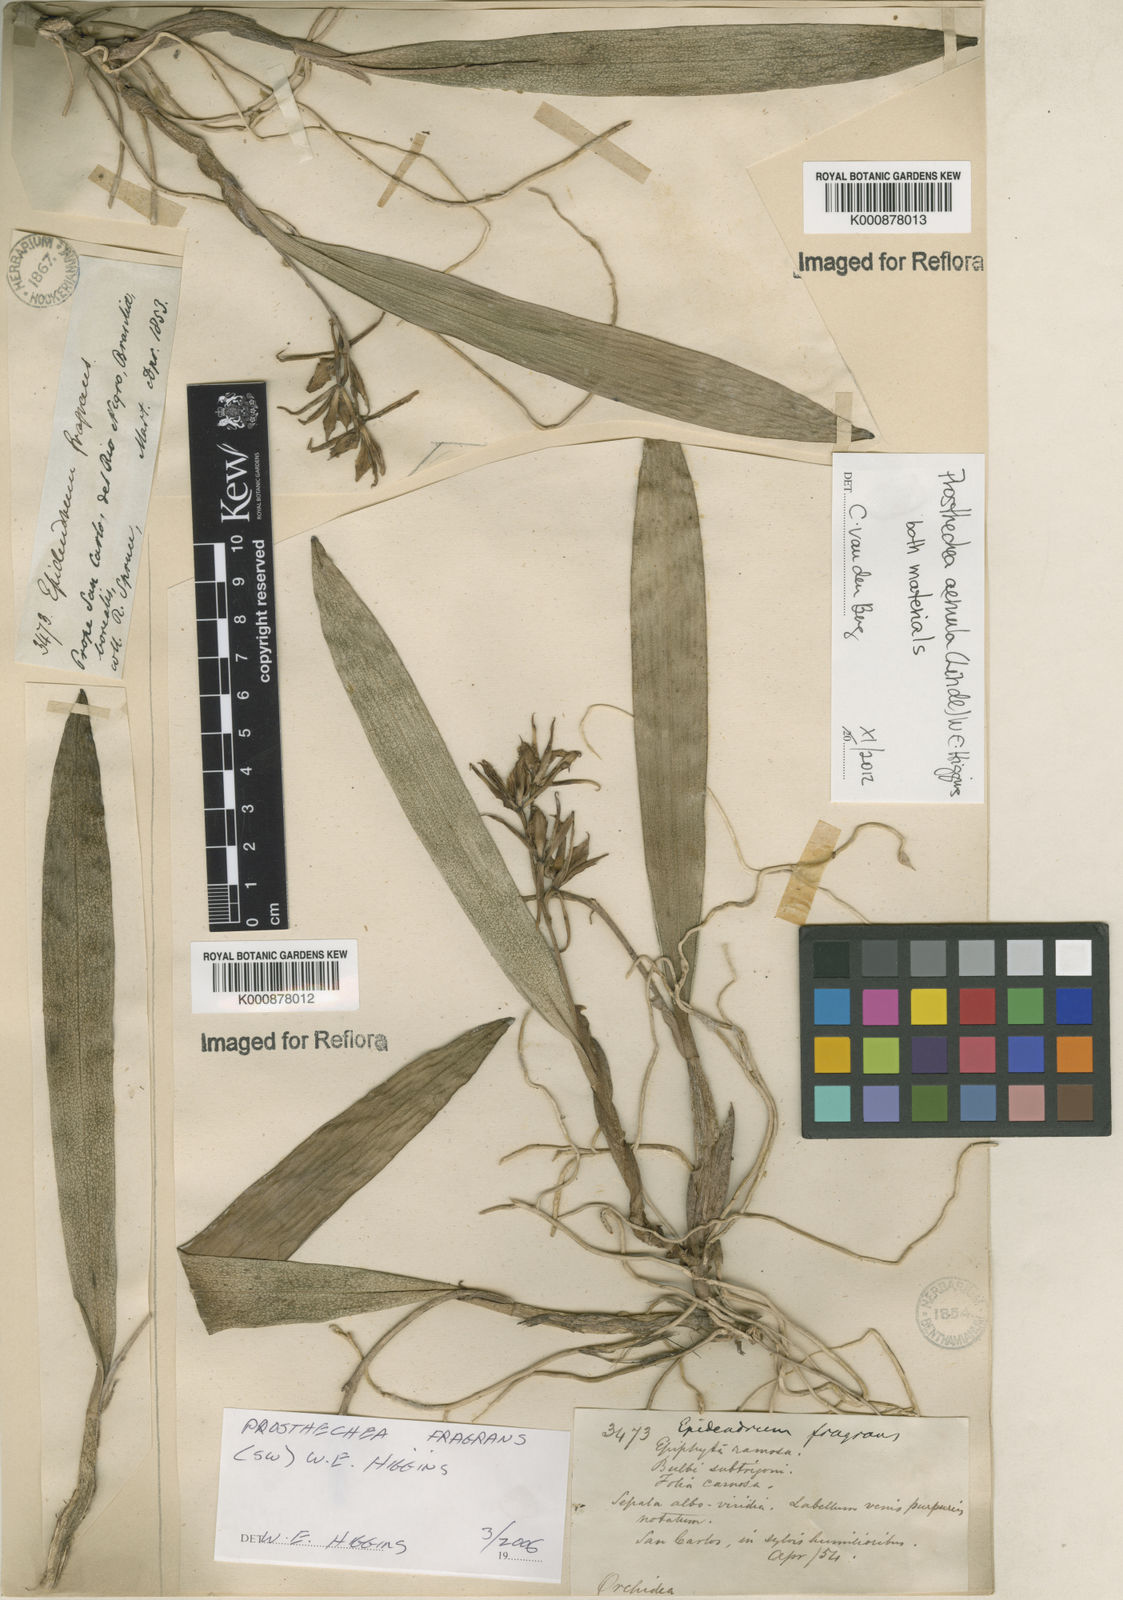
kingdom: Plantae
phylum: Tracheophyta
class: Liliopsida
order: Asparagales
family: Orchidaceae
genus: Prosthechea
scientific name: Prosthechea aemula
